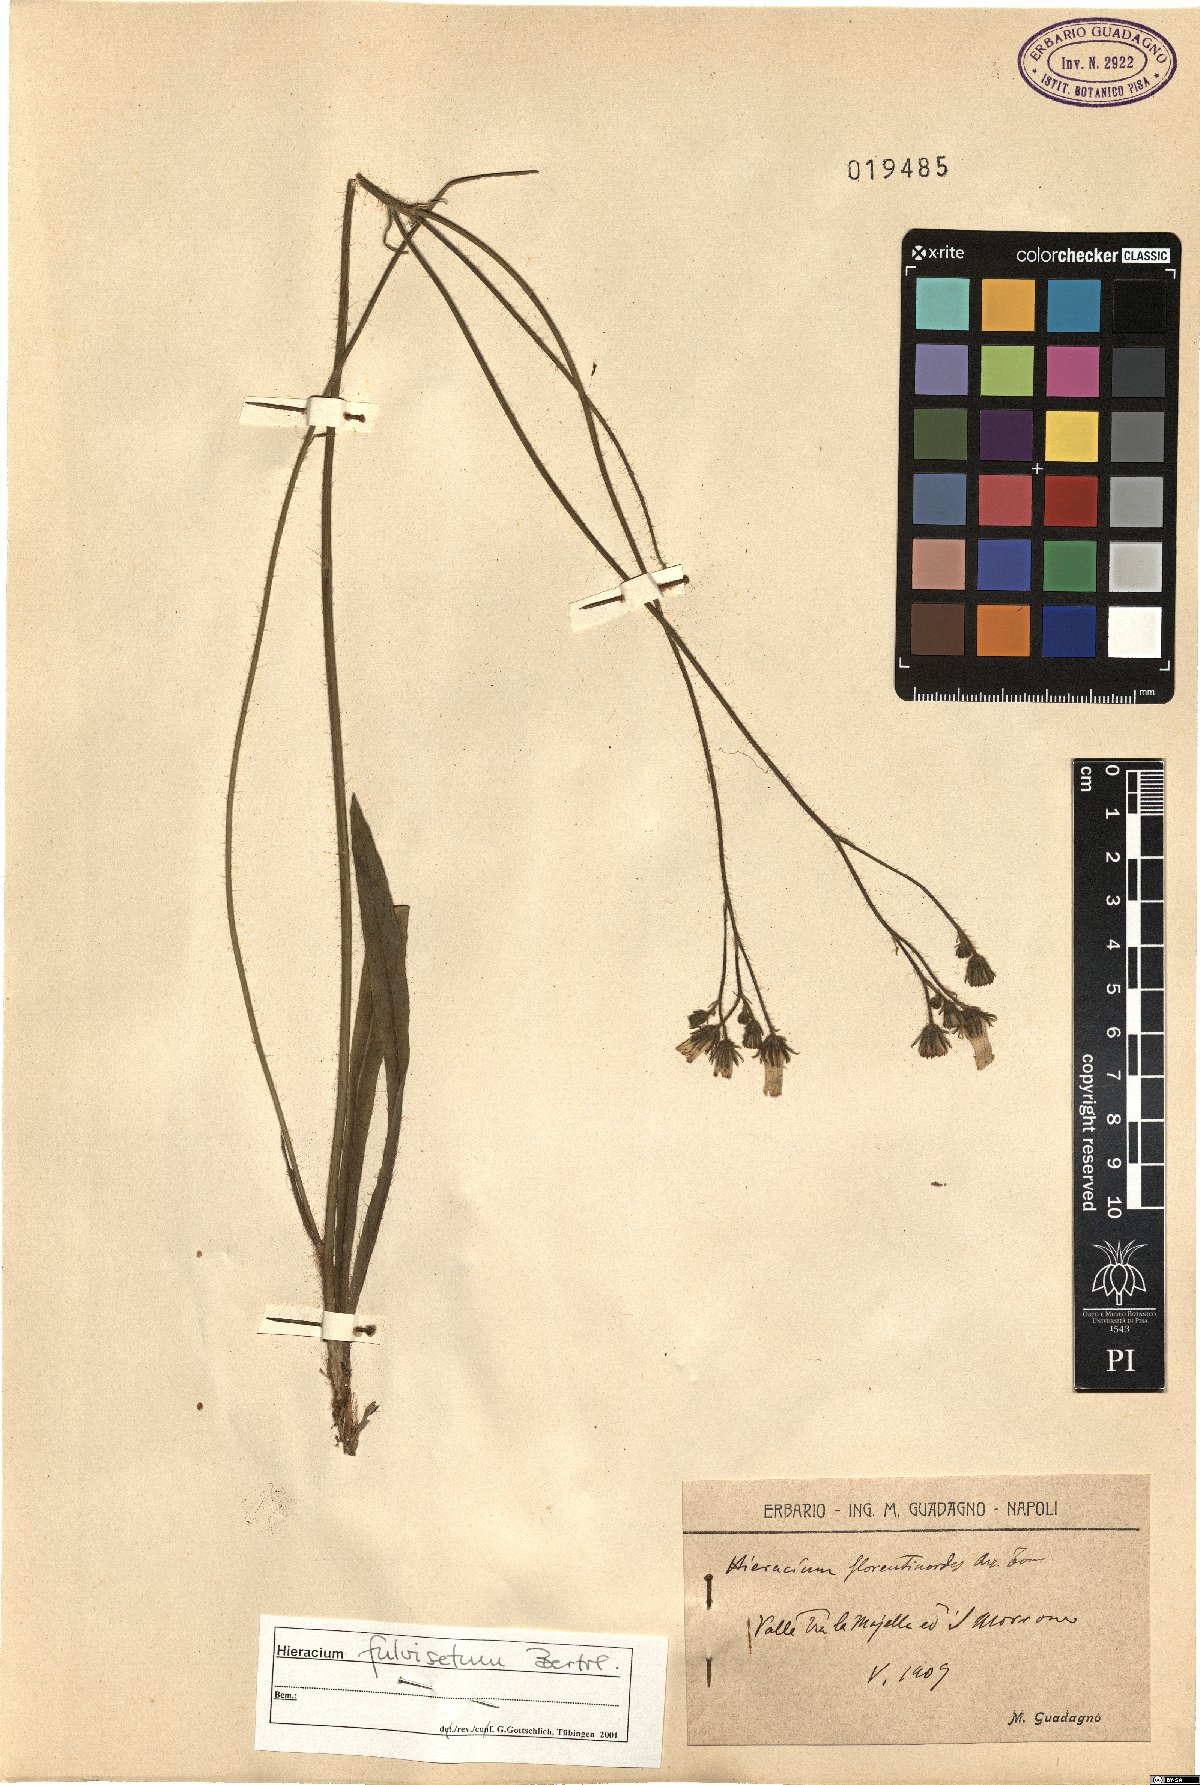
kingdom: Plantae
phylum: Tracheophyta
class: Magnoliopsida
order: Asterales
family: Asteraceae
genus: Pilosella
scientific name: Pilosella anchusoides
